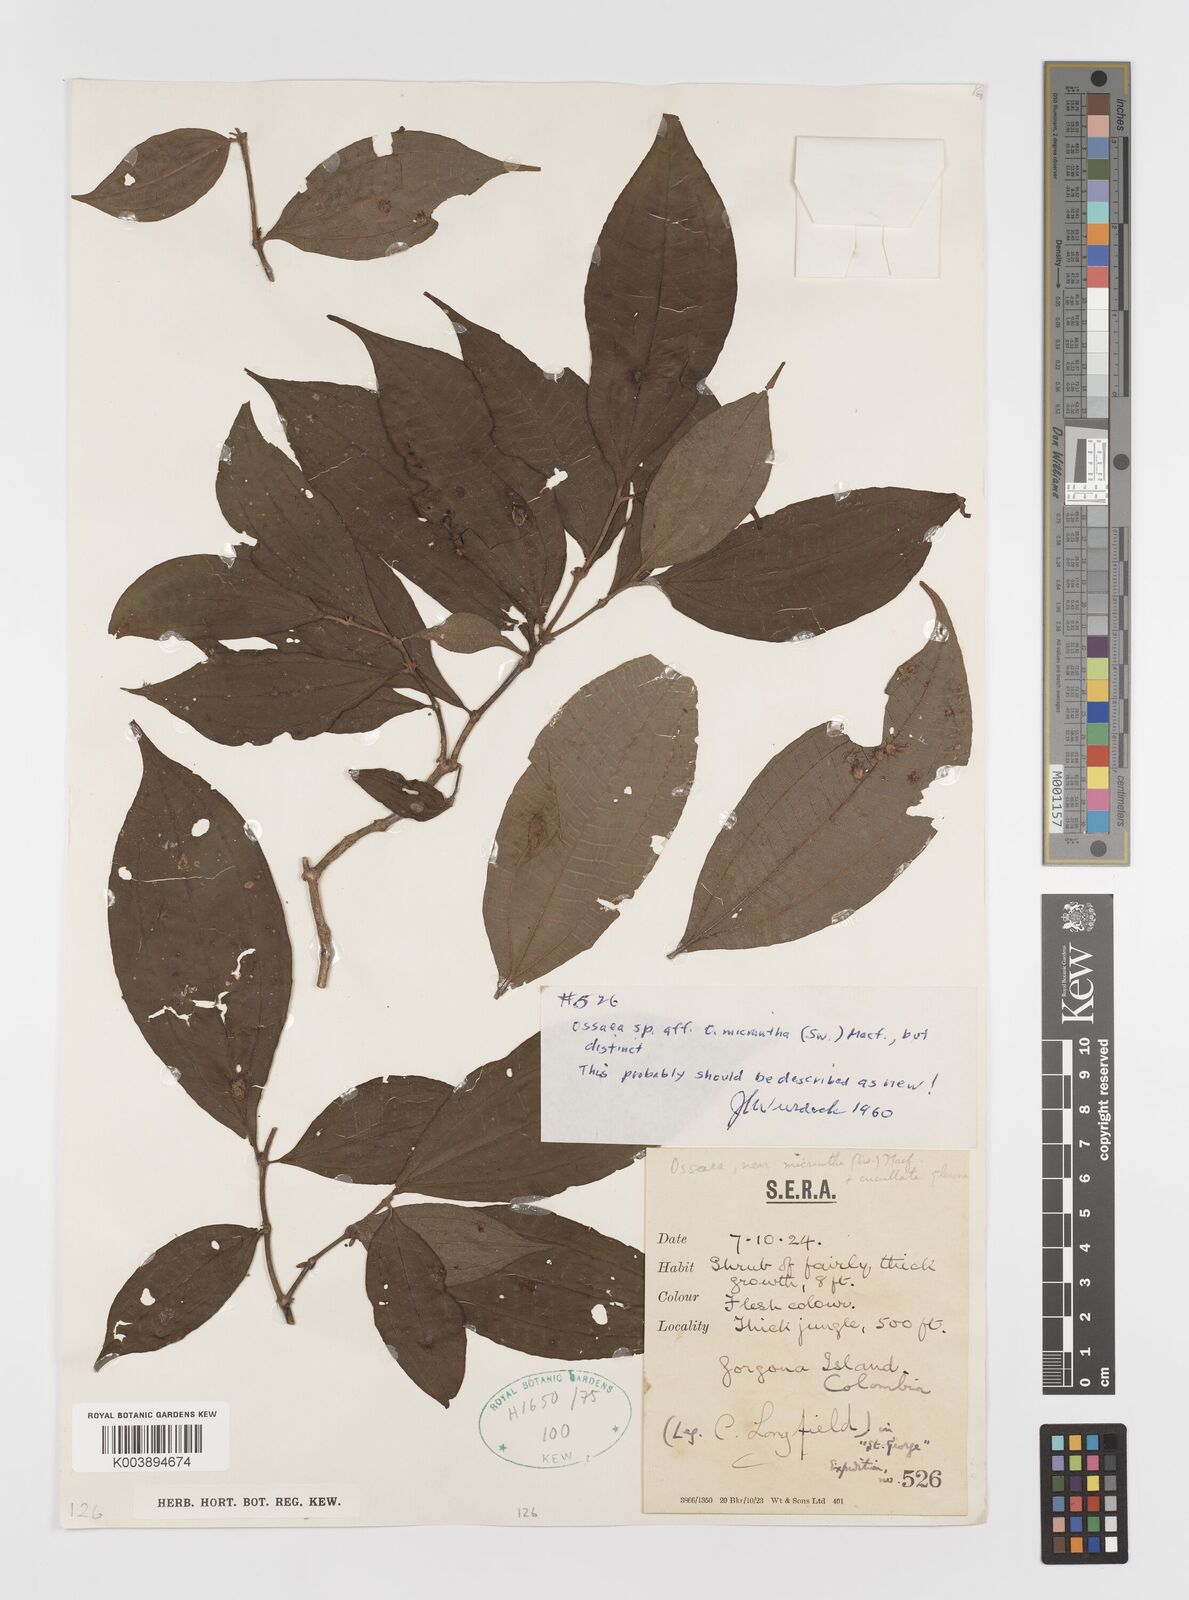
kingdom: Plantae
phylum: Tracheophyta
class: Magnoliopsida
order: Myrtales
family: Melastomataceae
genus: Ossaea
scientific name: Ossaea
